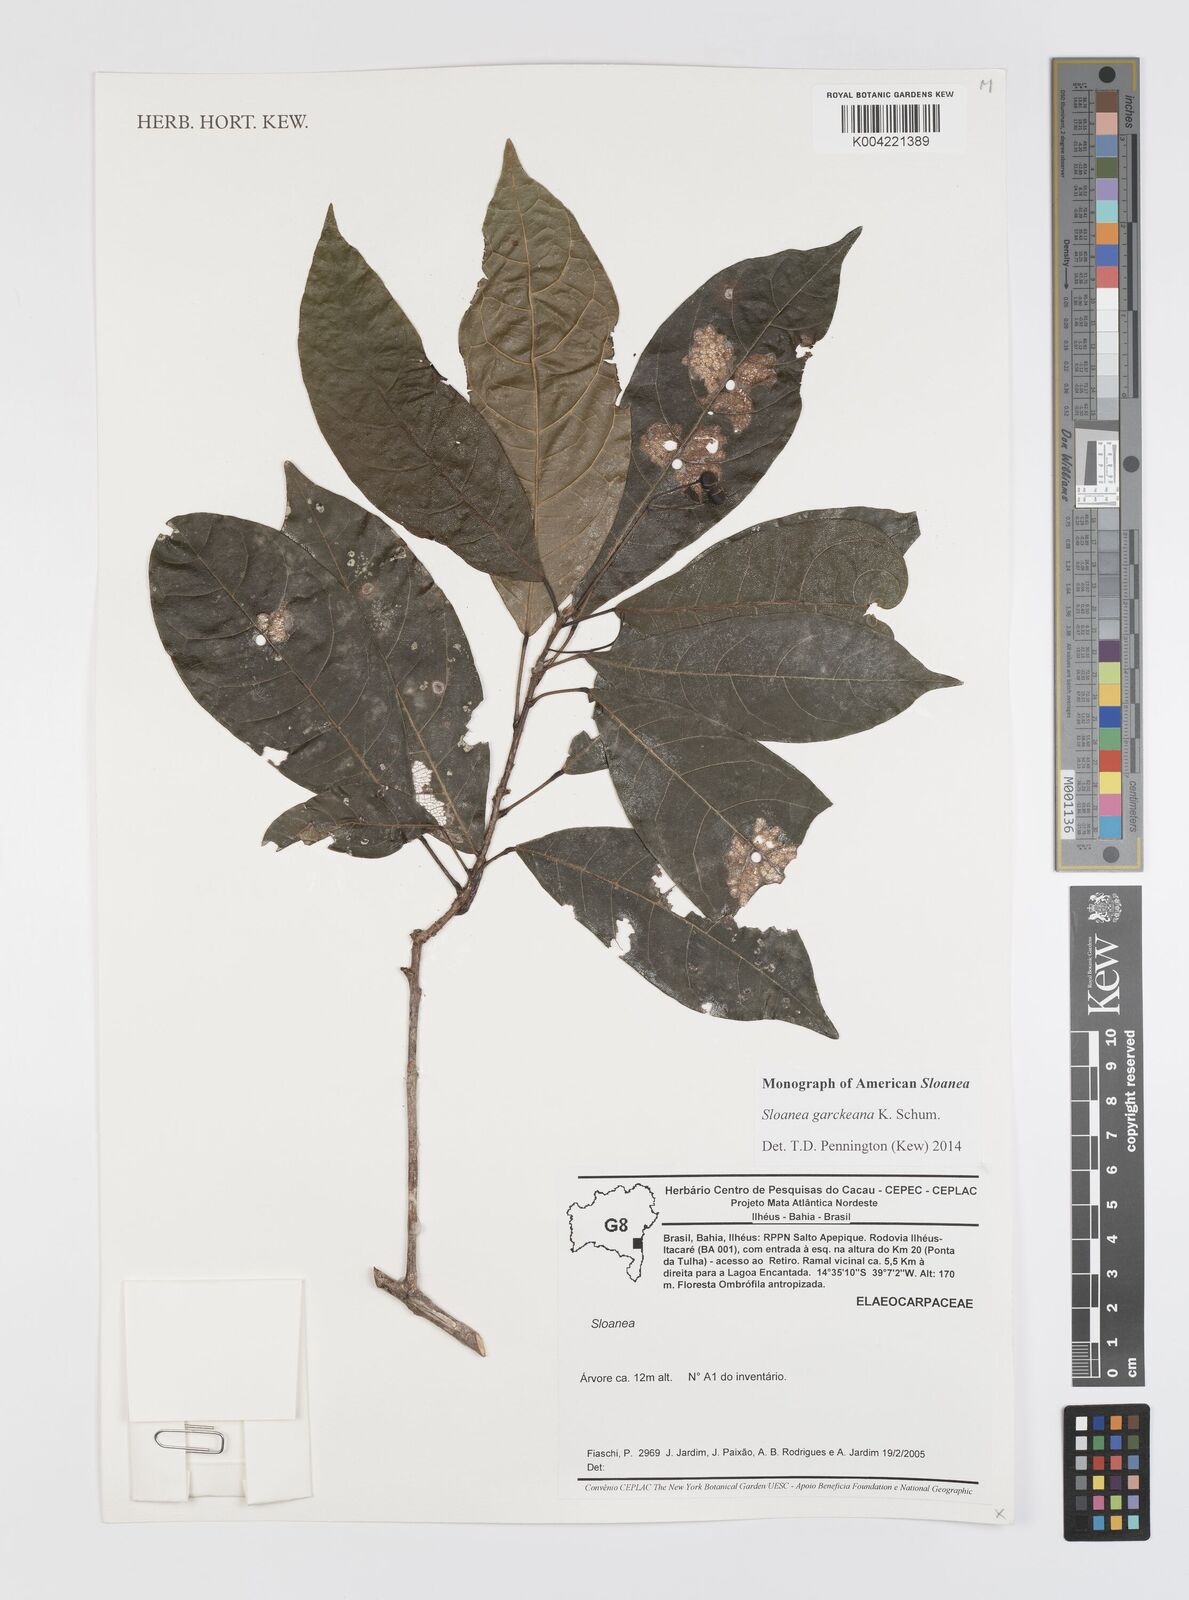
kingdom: Plantae
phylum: Tracheophyta
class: Magnoliopsida
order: Oxalidales
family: Elaeocarpaceae
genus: Sloanea
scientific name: Sloanea garckeana
